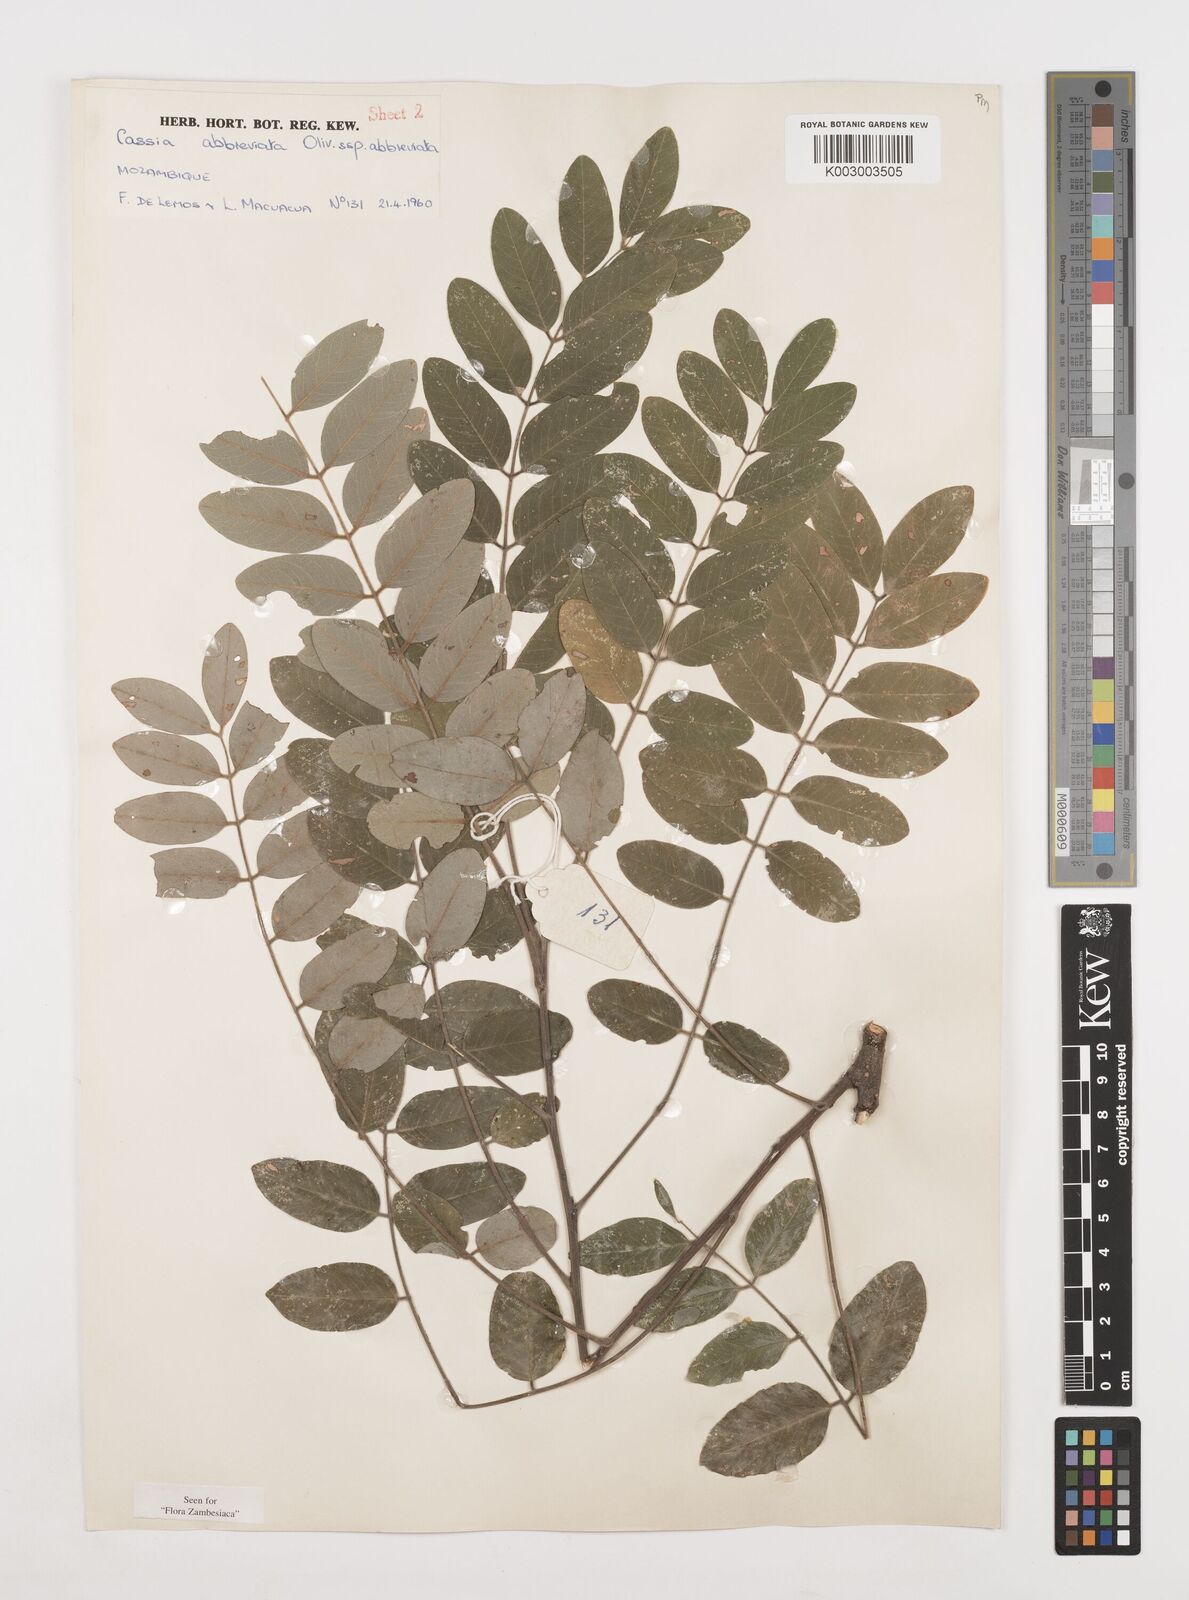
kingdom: Plantae
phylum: Tracheophyta
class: Magnoliopsida
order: Fabales
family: Fabaceae
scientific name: Fabaceae
